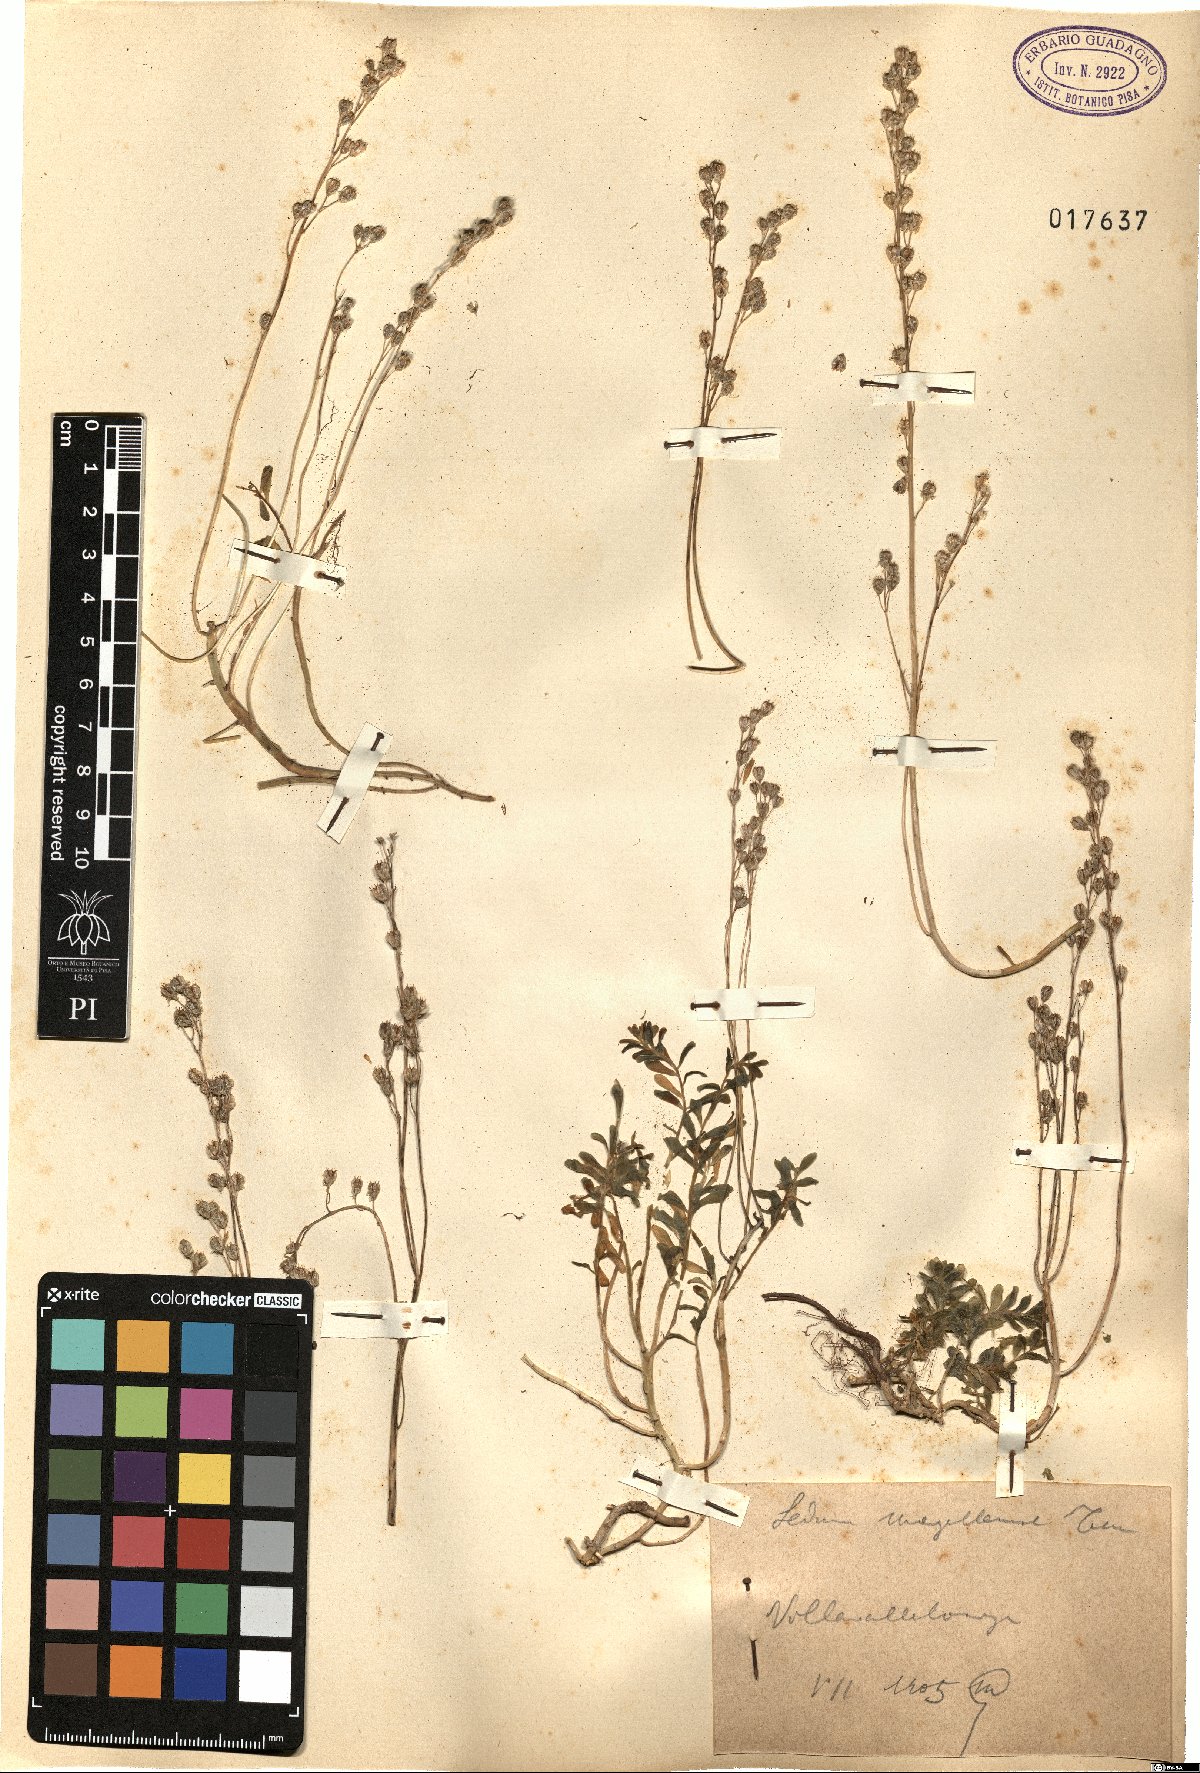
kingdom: Plantae
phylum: Tracheophyta
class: Magnoliopsida
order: Saxifragales
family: Crassulaceae
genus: Sedum
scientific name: Sedum magellense
